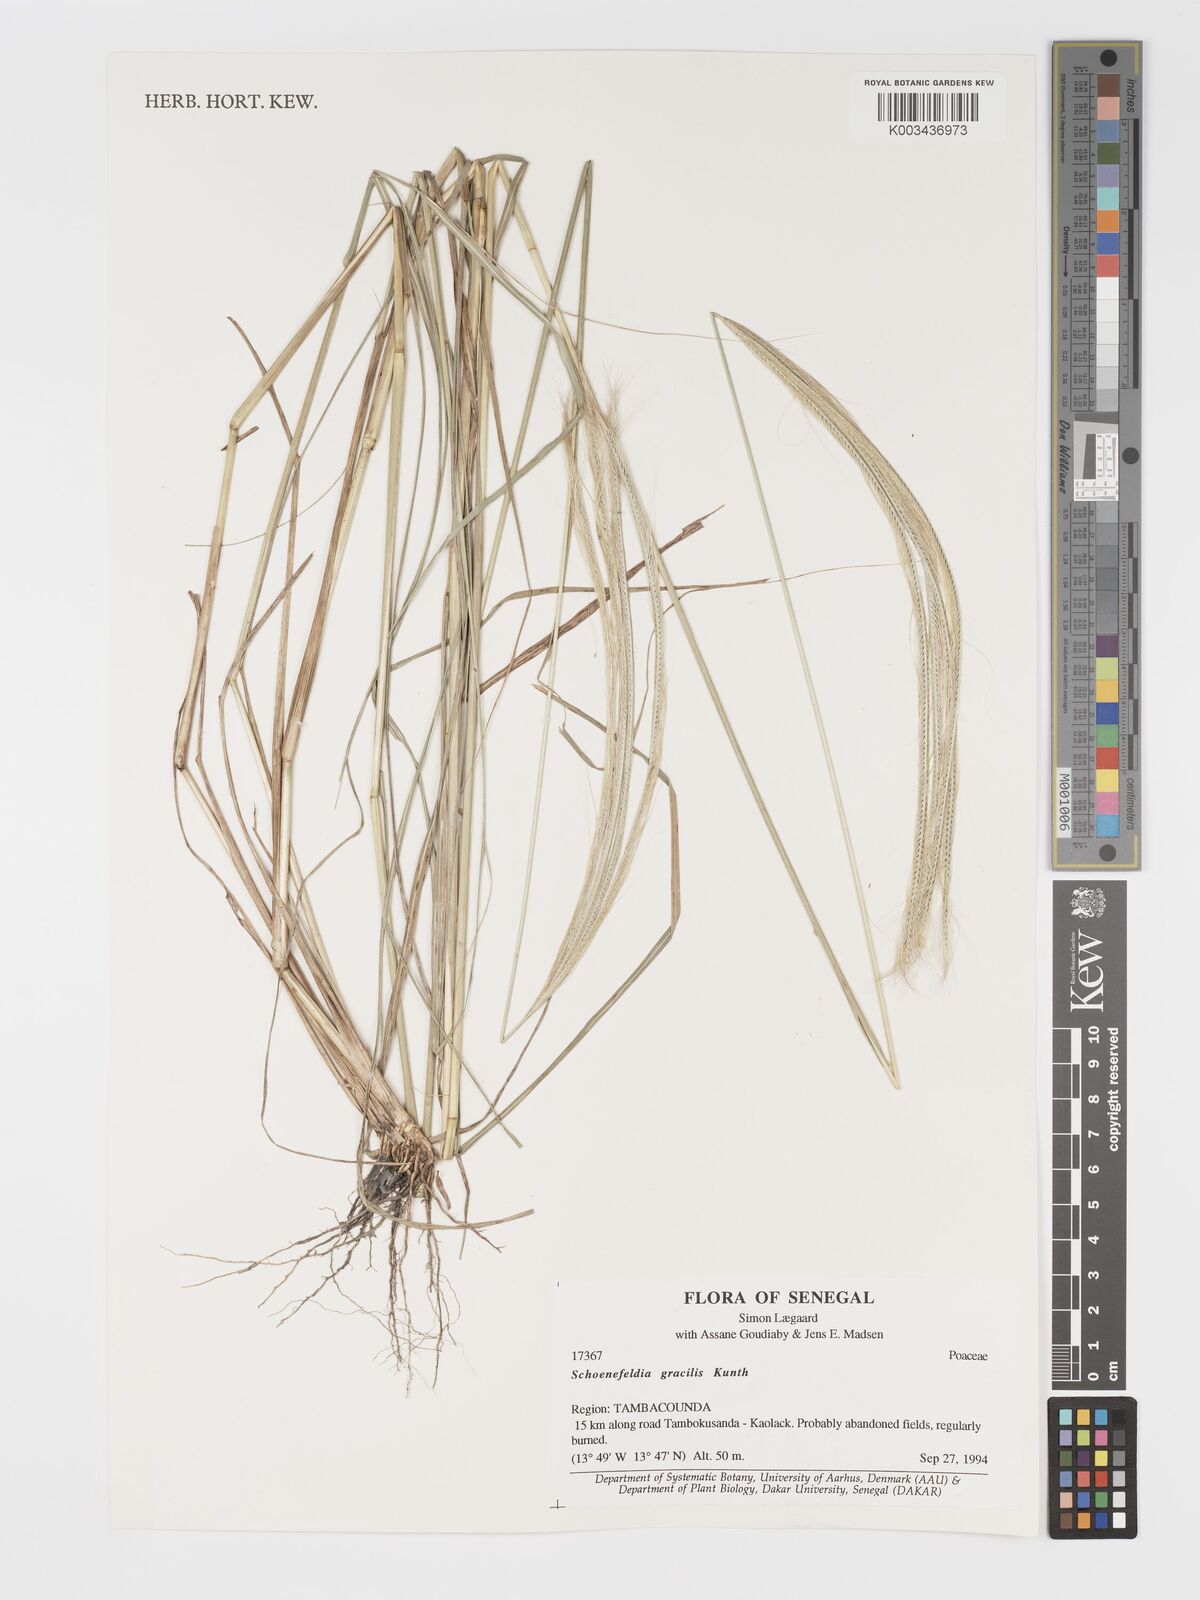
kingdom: Plantae
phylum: Tracheophyta
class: Liliopsida
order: Poales
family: Poaceae
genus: Schoenefeldia
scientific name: Schoenefeldia gracilis
